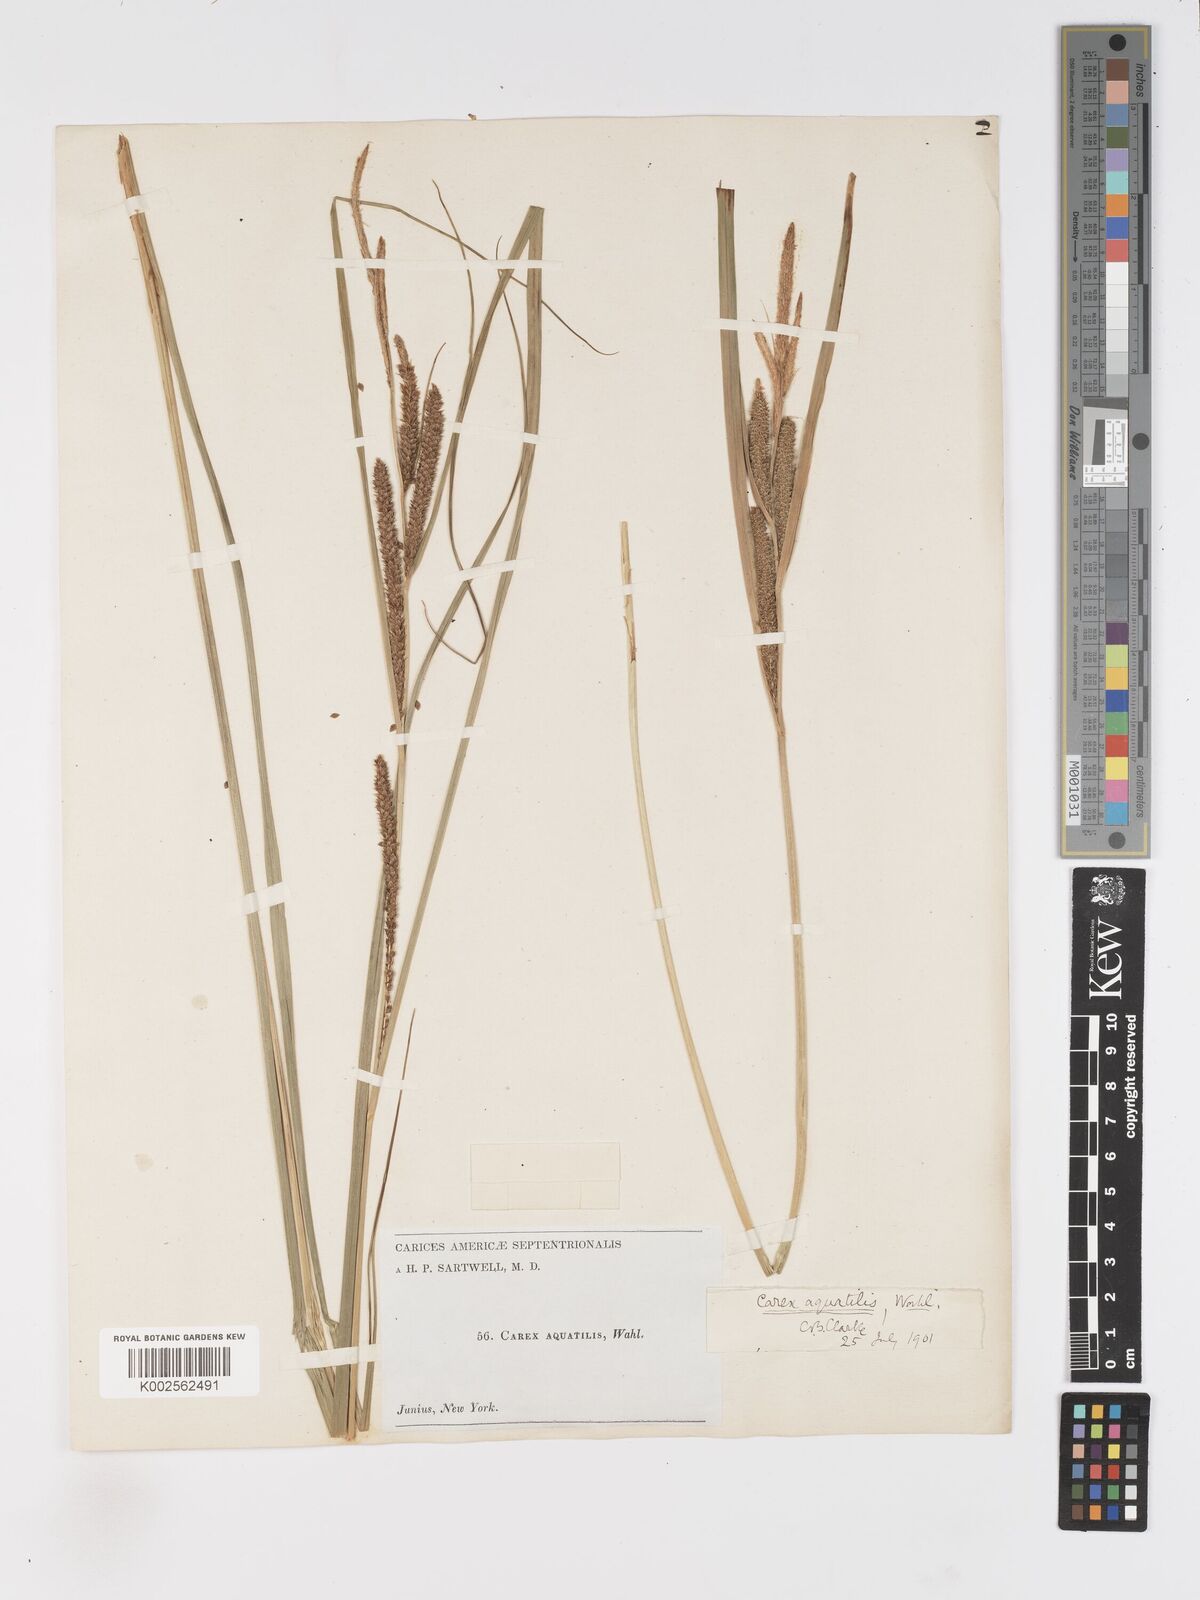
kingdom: Plantae
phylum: Tracheophyta
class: Liliopsida
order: Poales
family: Cyperaceae
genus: Carex
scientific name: Carex
